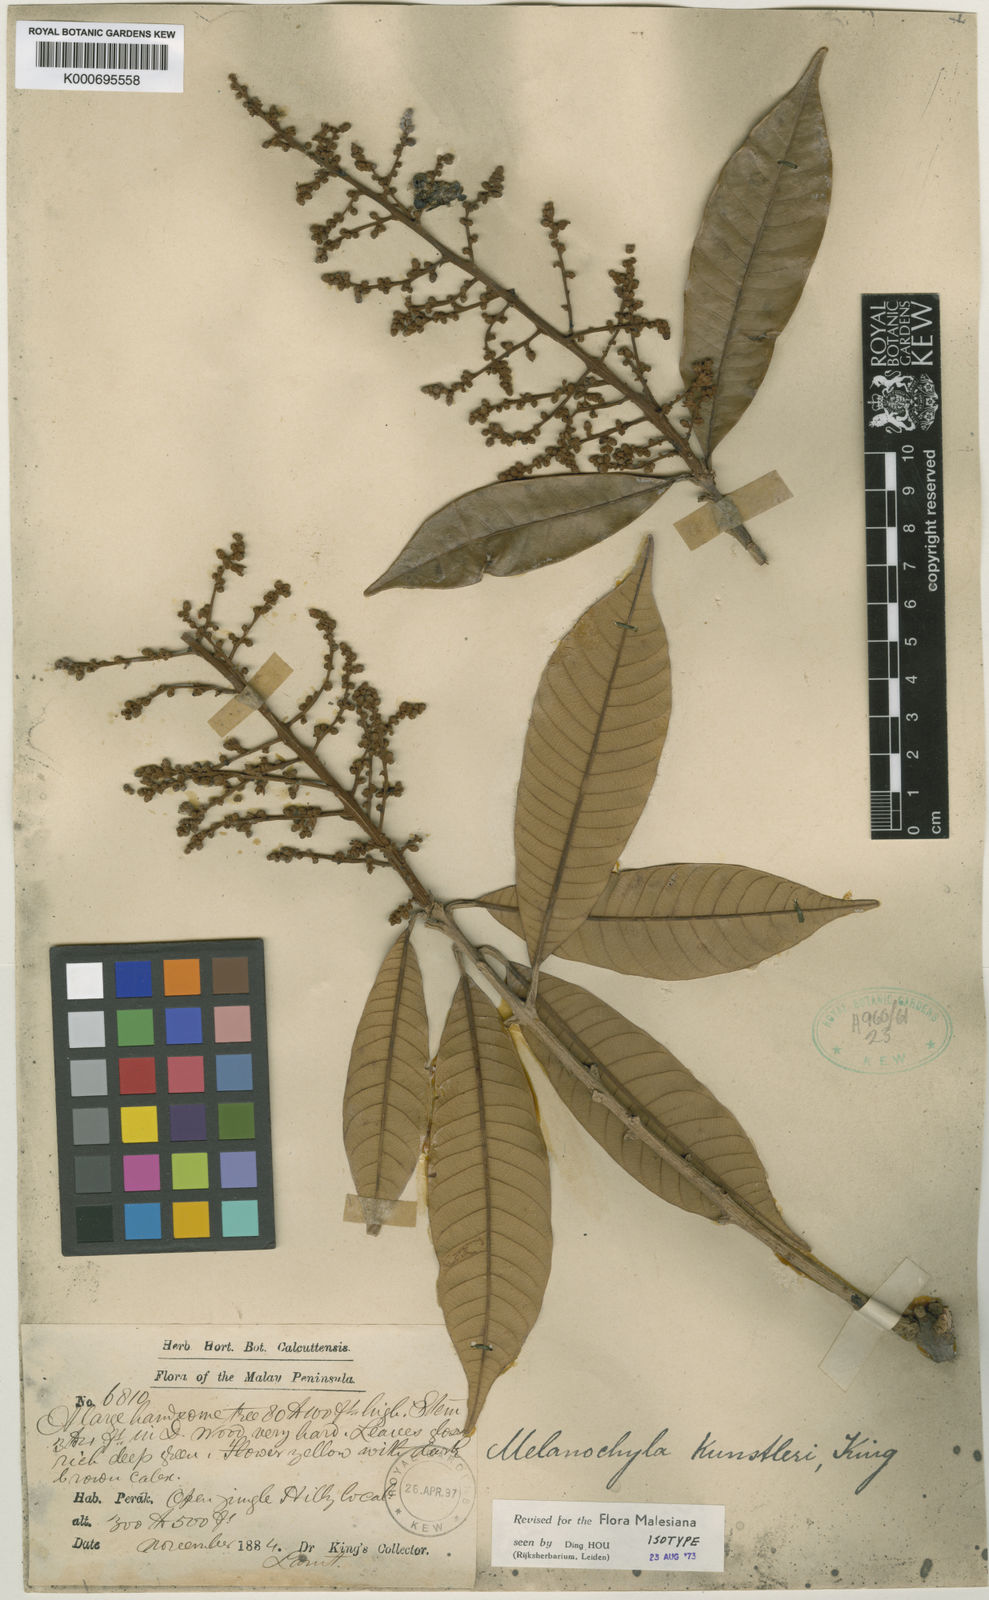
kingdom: Plantae
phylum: Tracheophyta
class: Magnoliopsida
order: Sapindales
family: Anacardiaceae
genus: Melanochyla
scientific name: Melanochyla kunstleri
